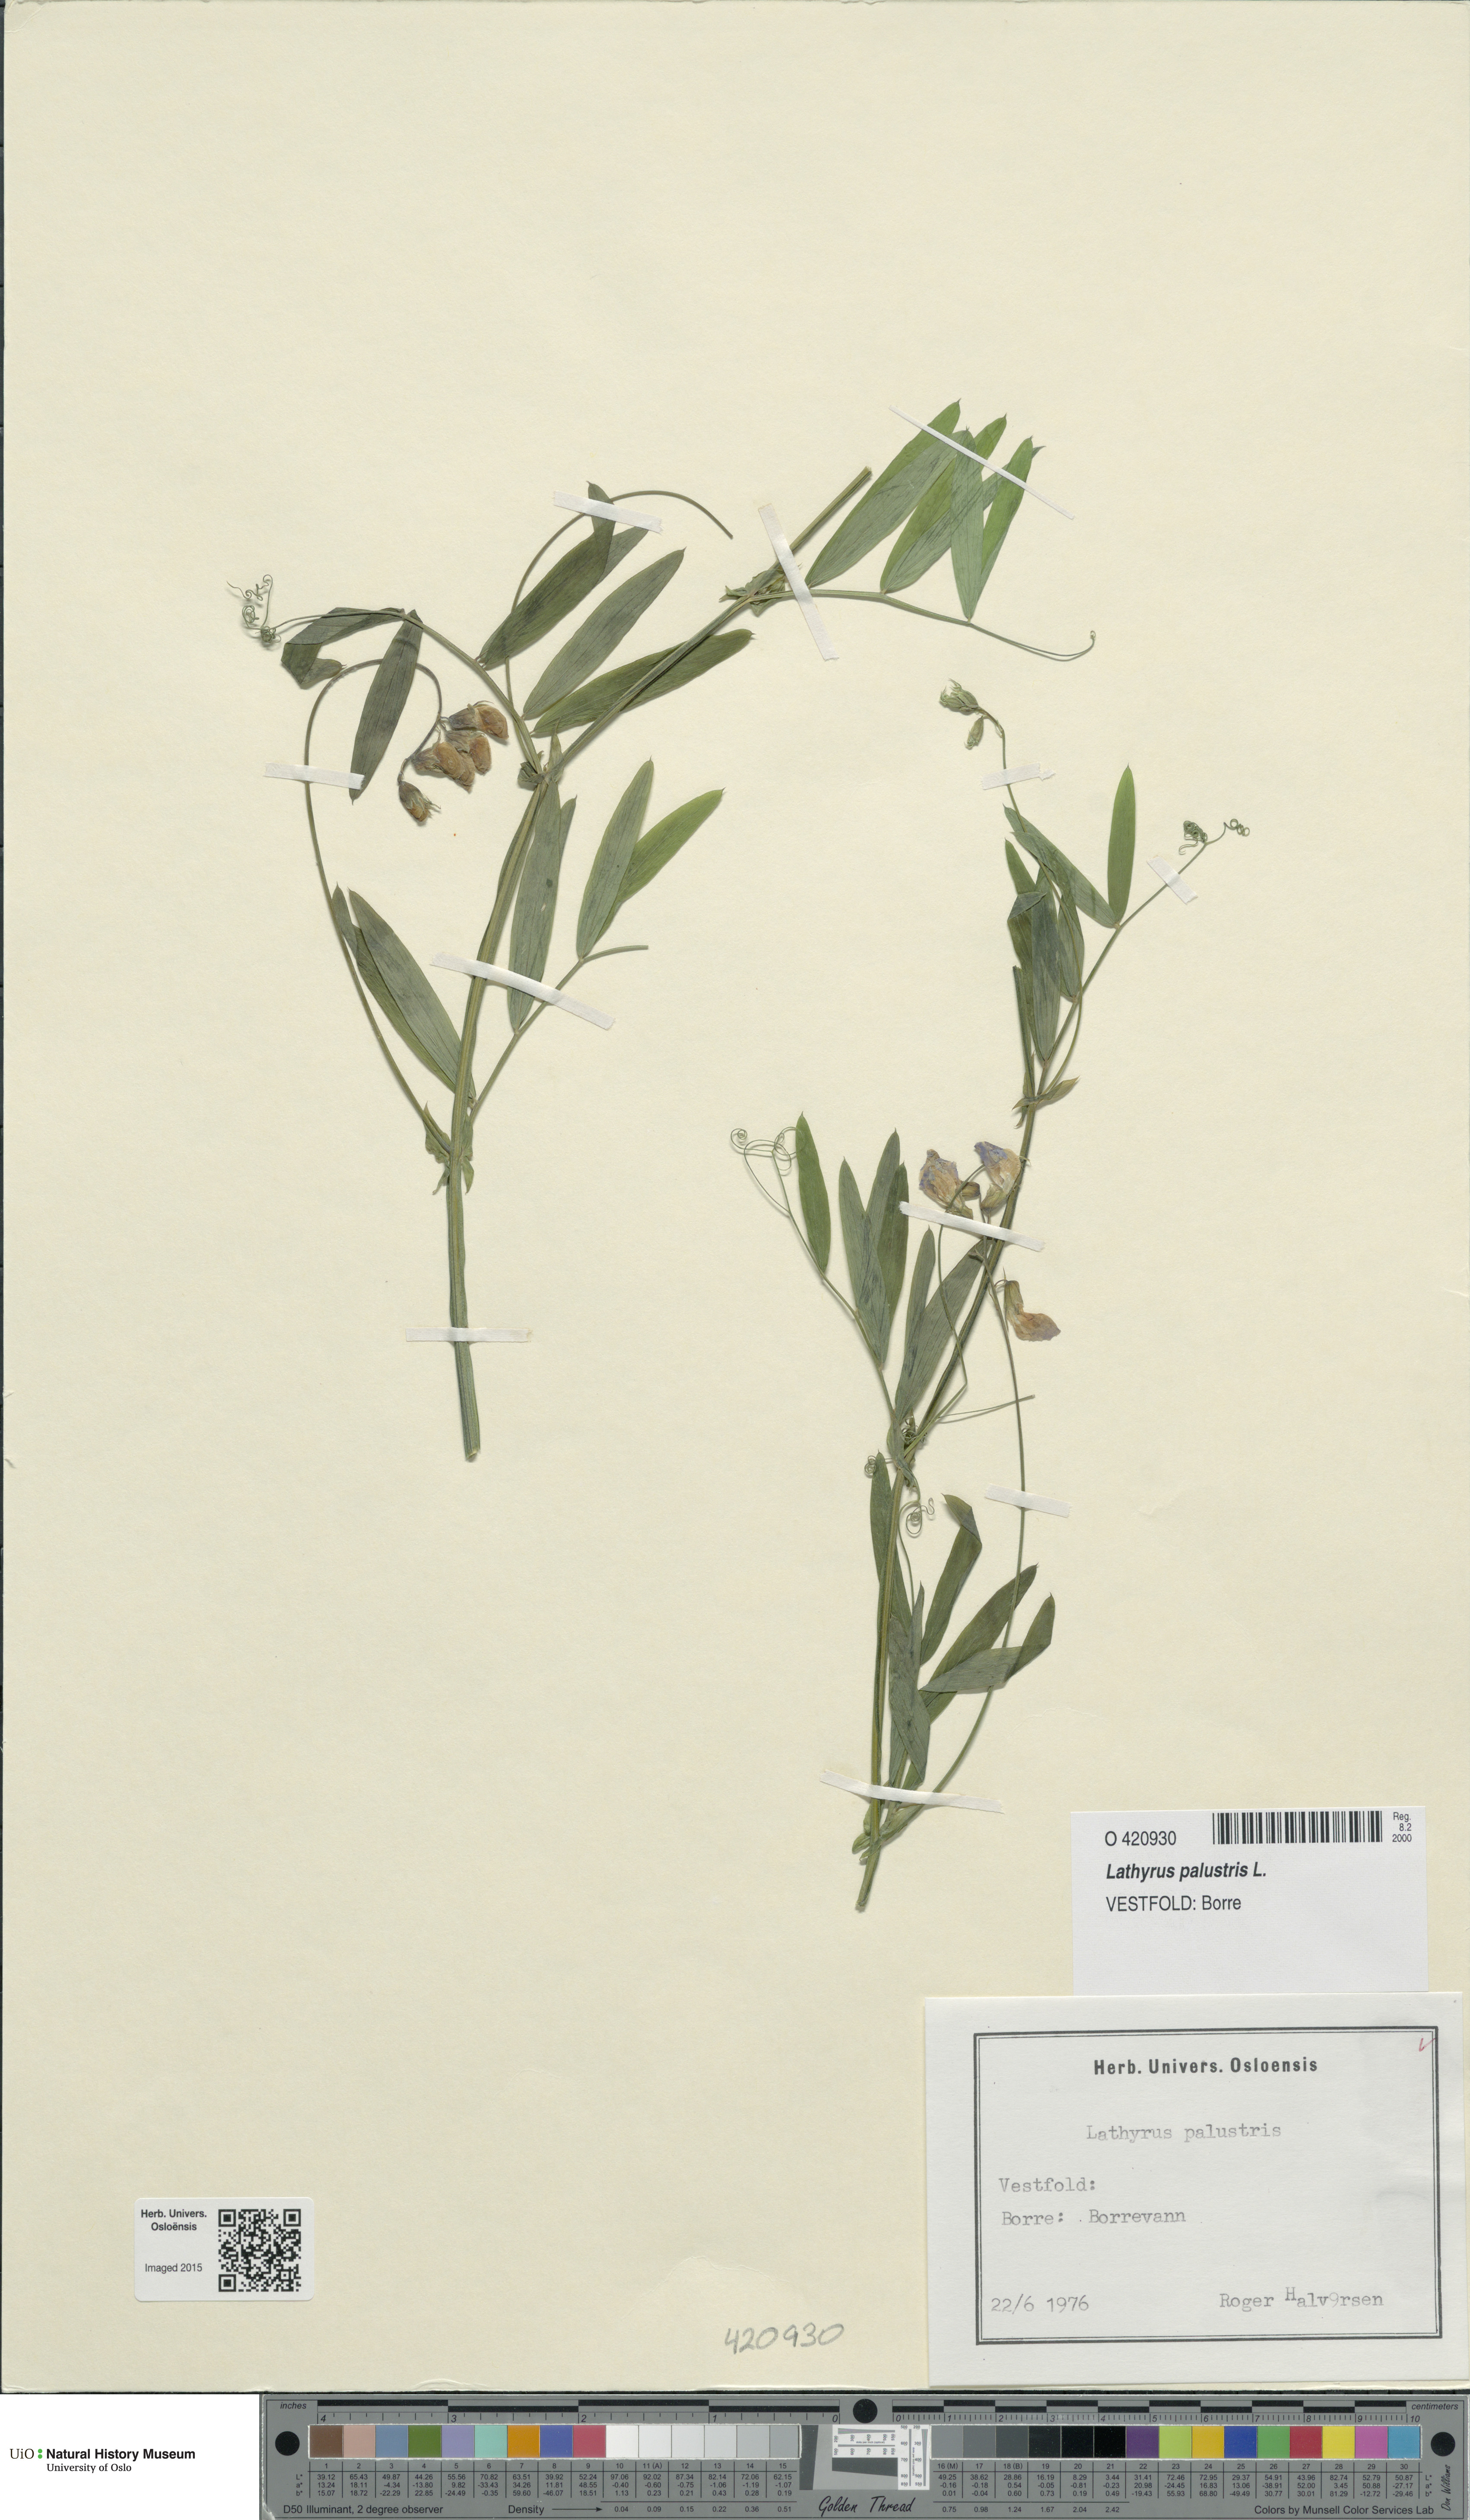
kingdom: Plantae
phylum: Tracheophyta
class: Magnoliopsida
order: Fabales
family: Fabaceae
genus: Lathyrus
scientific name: Lathyrus palustris
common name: Marsh pea
